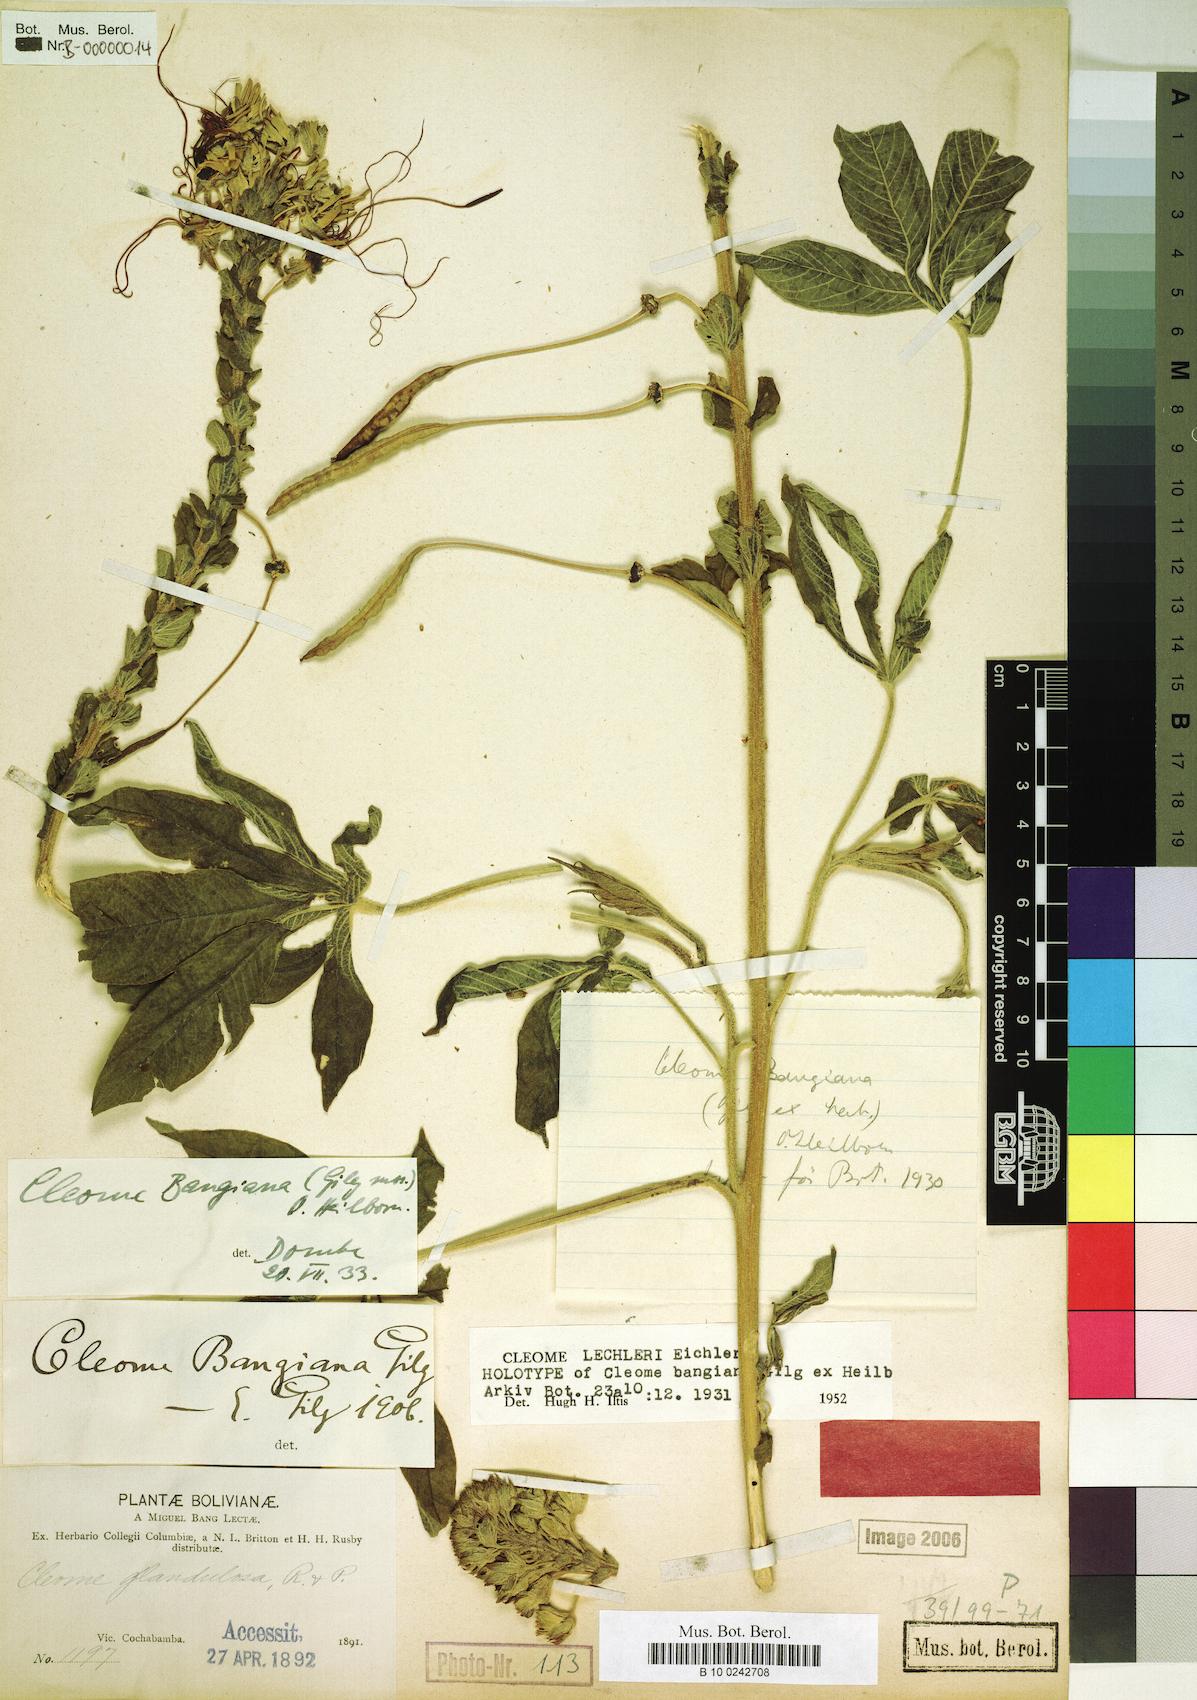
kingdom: Plantae
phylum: Tracheophyta
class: Magnoliopsida
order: Brassicales
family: Cleomaceae
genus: Andinocleome
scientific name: Andinocleome lechleri
